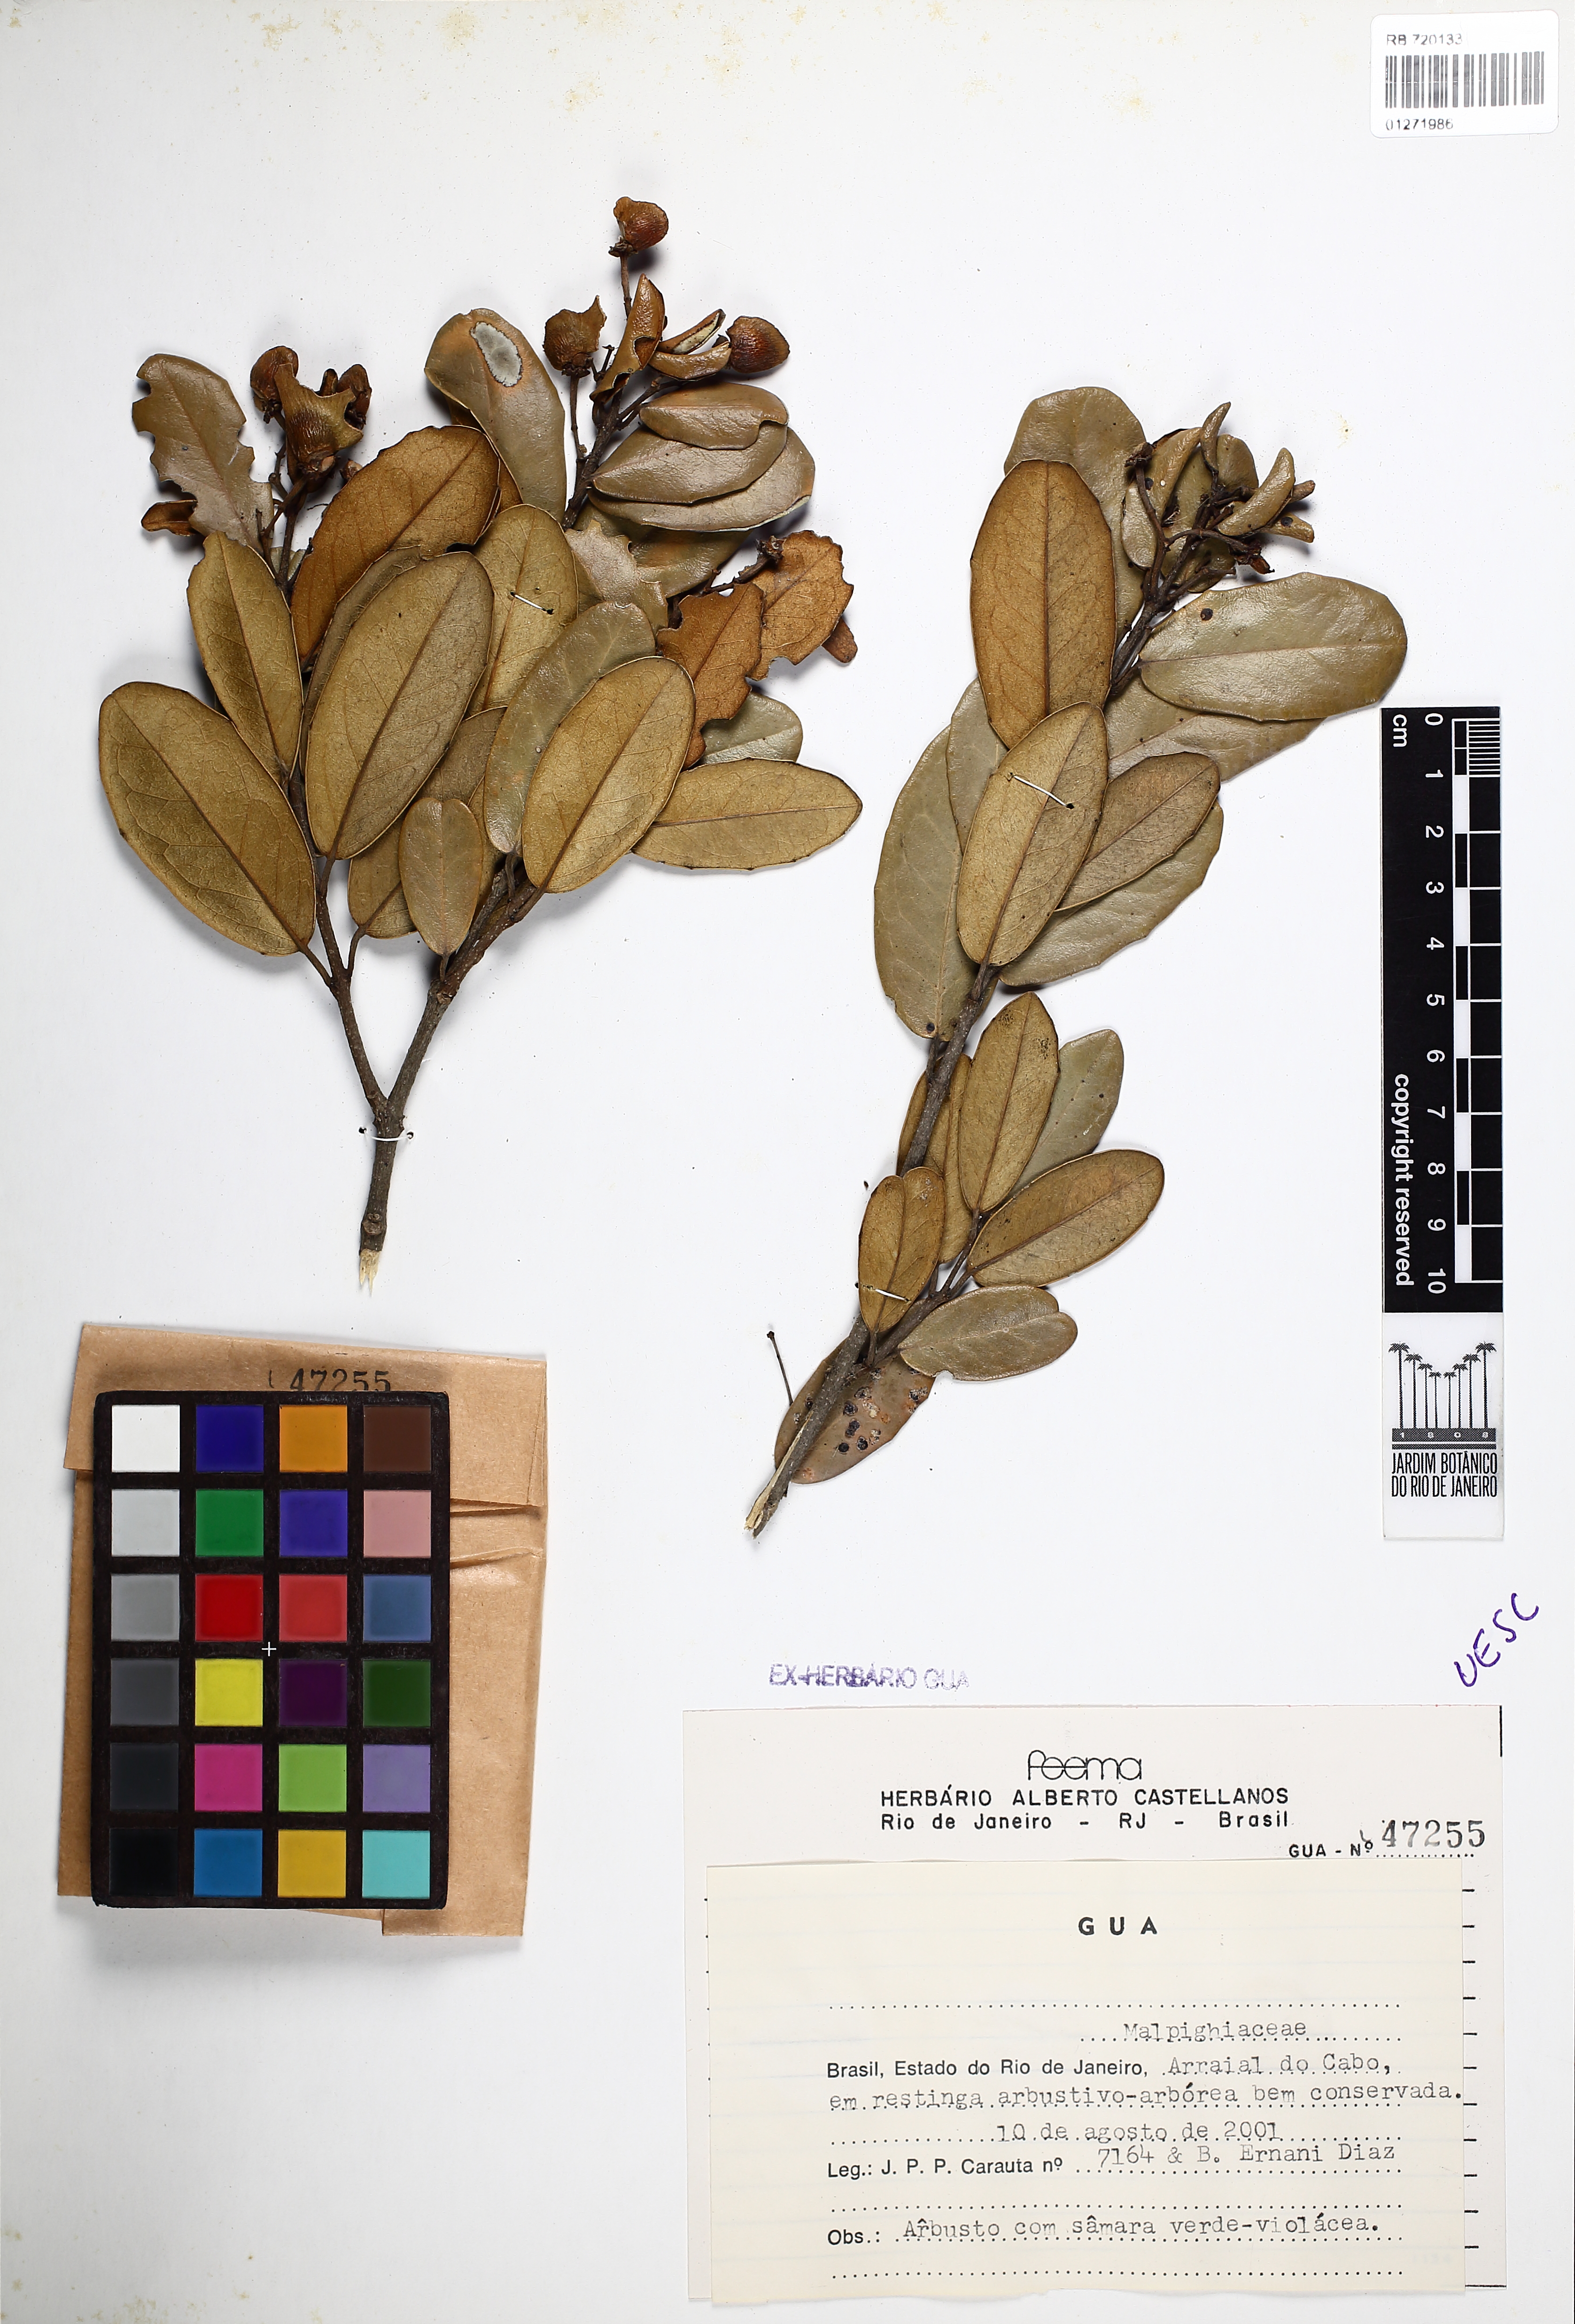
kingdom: Plantae
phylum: Tracheophyta
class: Magnoliopsida
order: Malpighiales
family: Malpighiaceae
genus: Heteropterys
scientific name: Heteropterys chrysophylla
